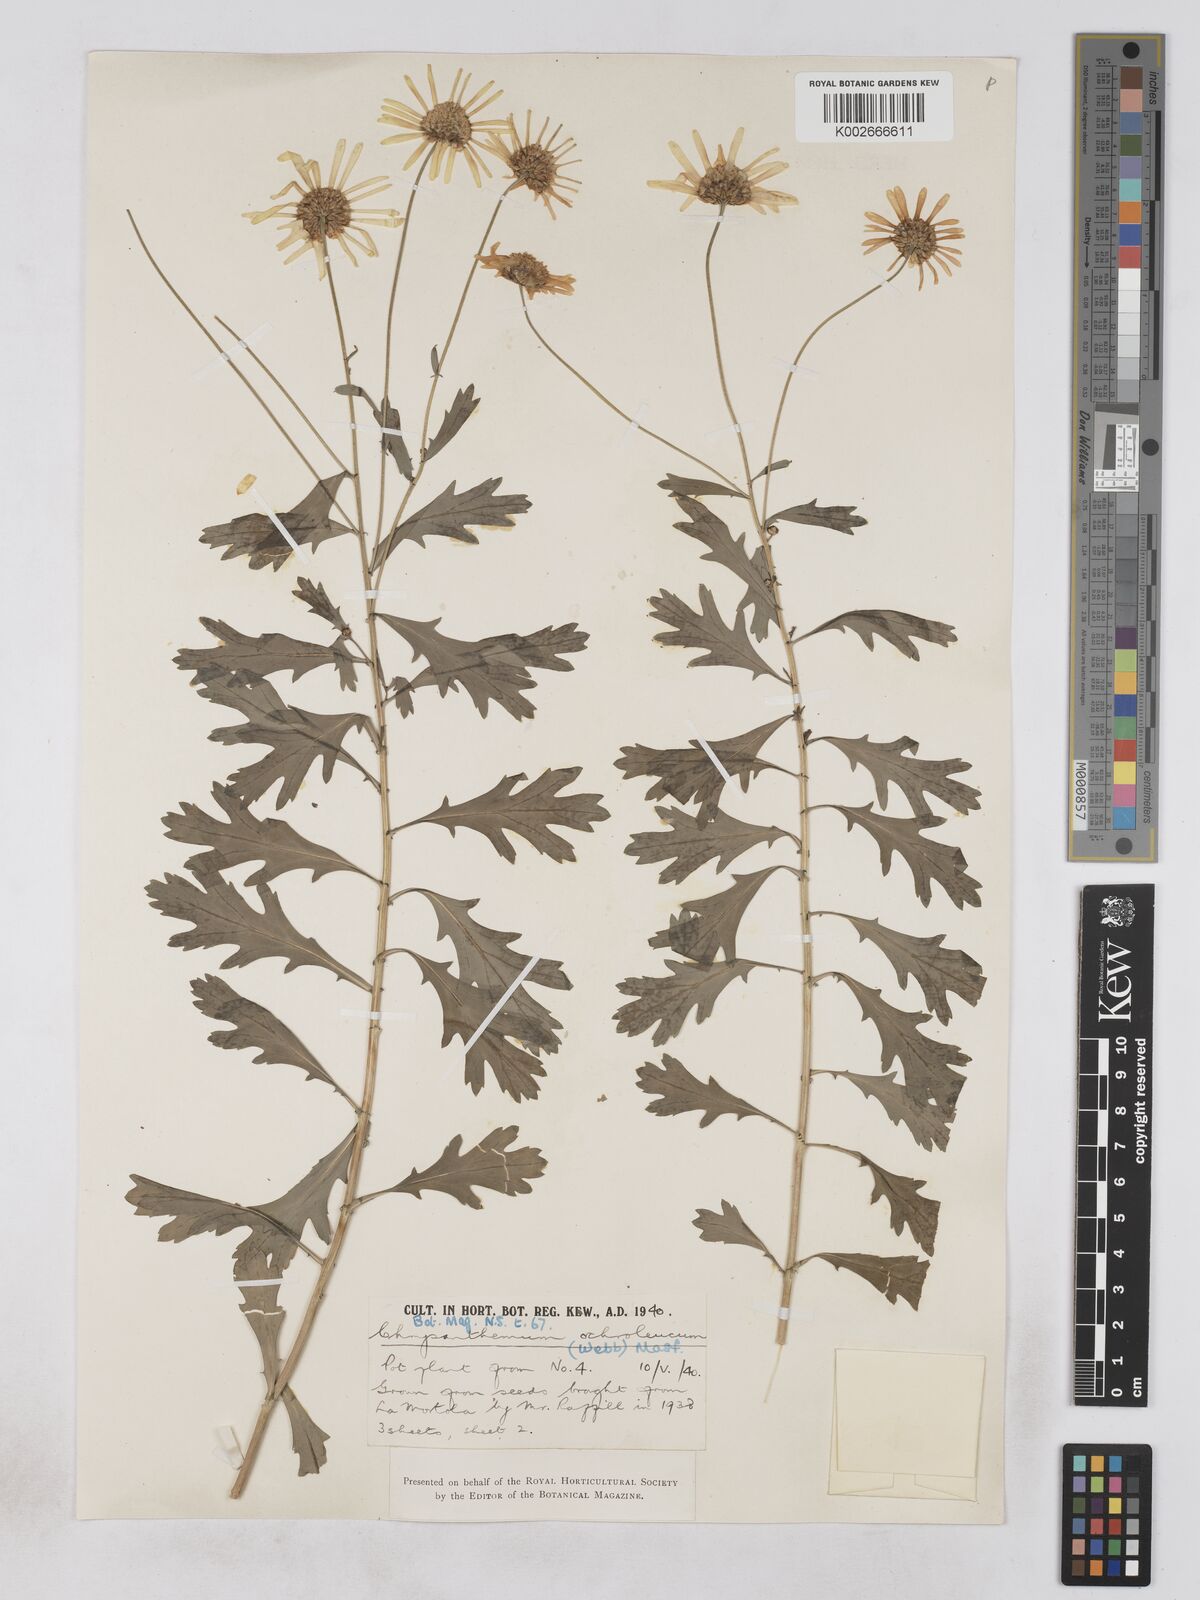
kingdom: Plantae
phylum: Tracheophyta
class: Magnoliopsida
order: Asterales
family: Asteraceae
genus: Argyranthemum
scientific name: Argyranthemum maderense
